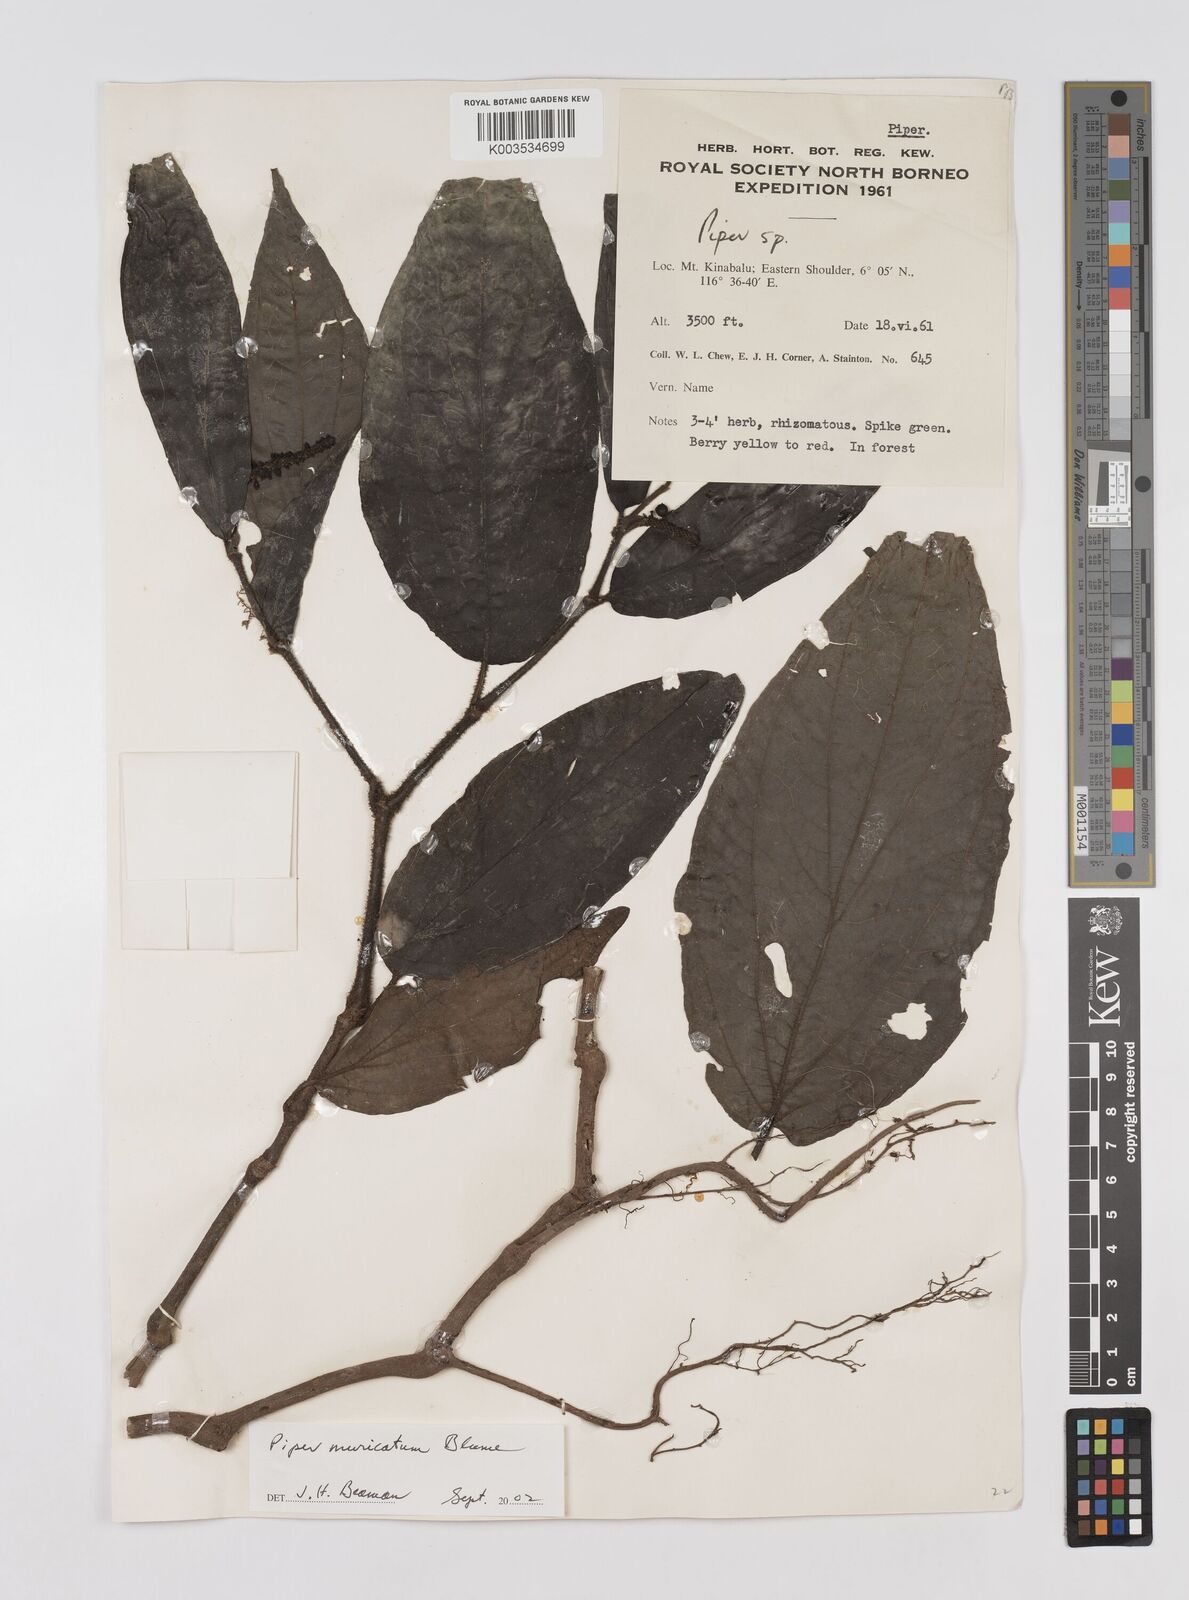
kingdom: Plantae
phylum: Tracheophyta
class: Magnoliopsida
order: Piperales
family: Piperaceae
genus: Piper
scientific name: Piper muricatum
